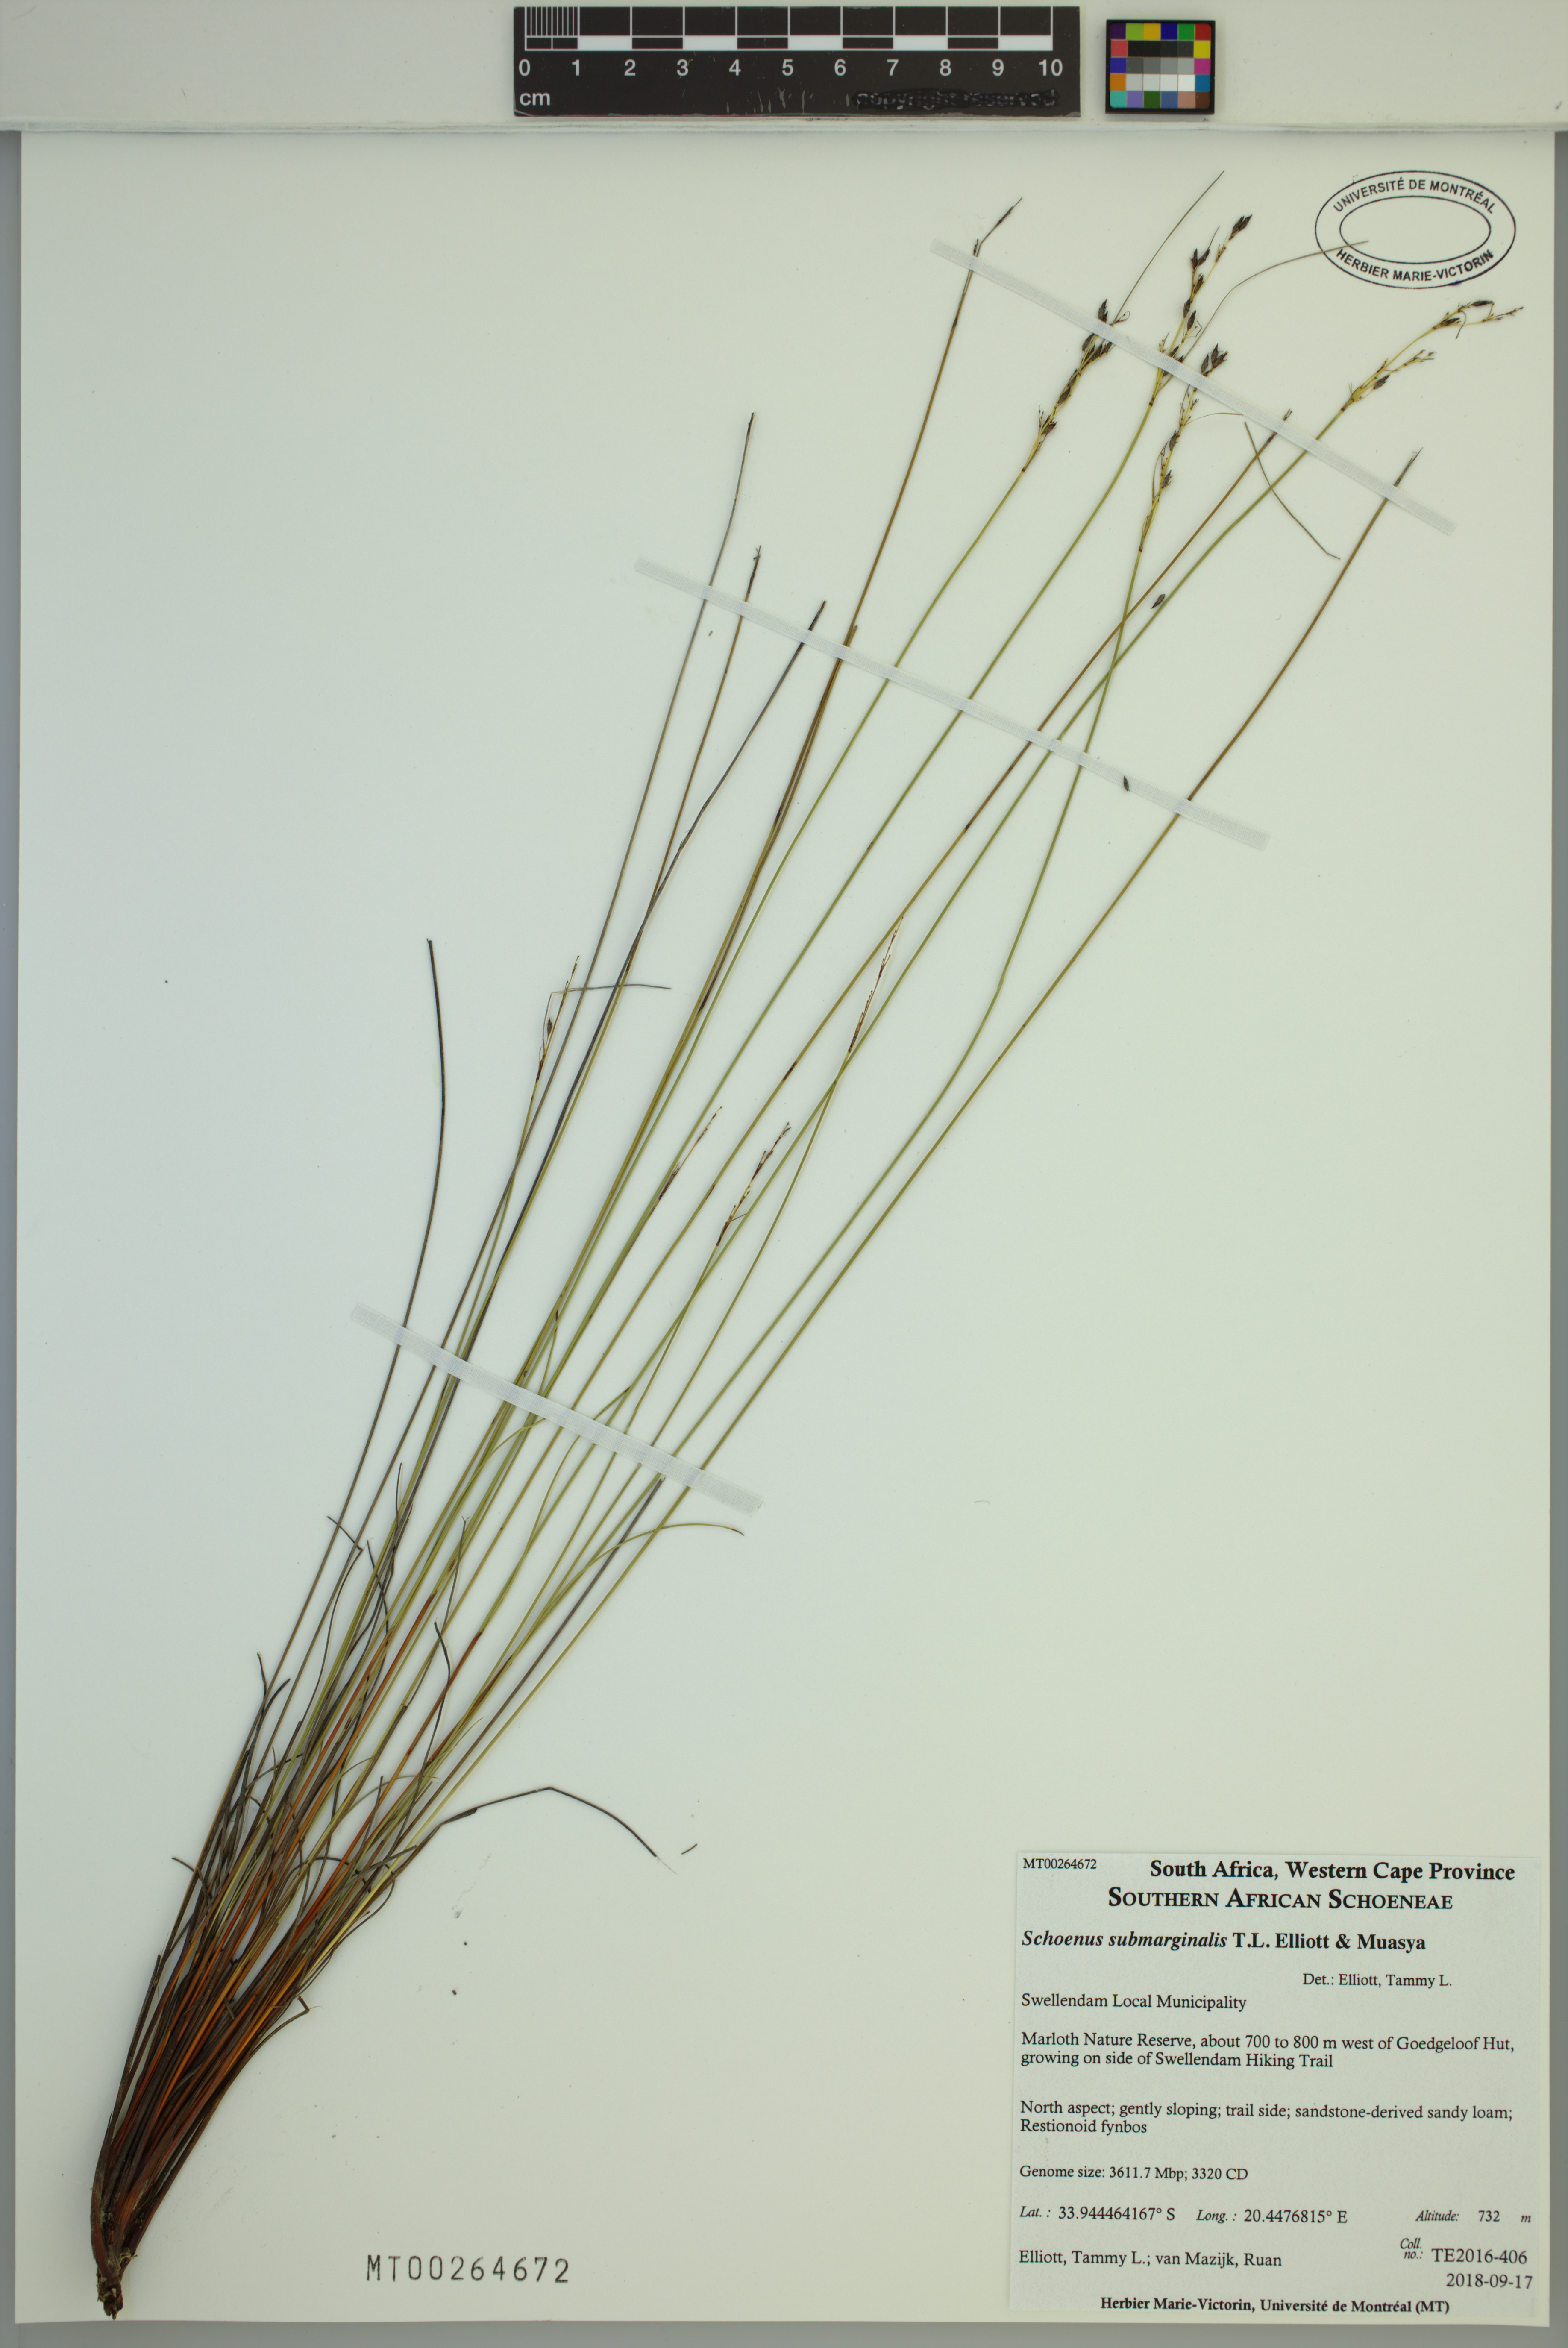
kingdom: Plantae
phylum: Tracheophyta
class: Liliopsida
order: Poales
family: Cyperaceae
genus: Schoenus
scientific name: Schoenus submarginalis
